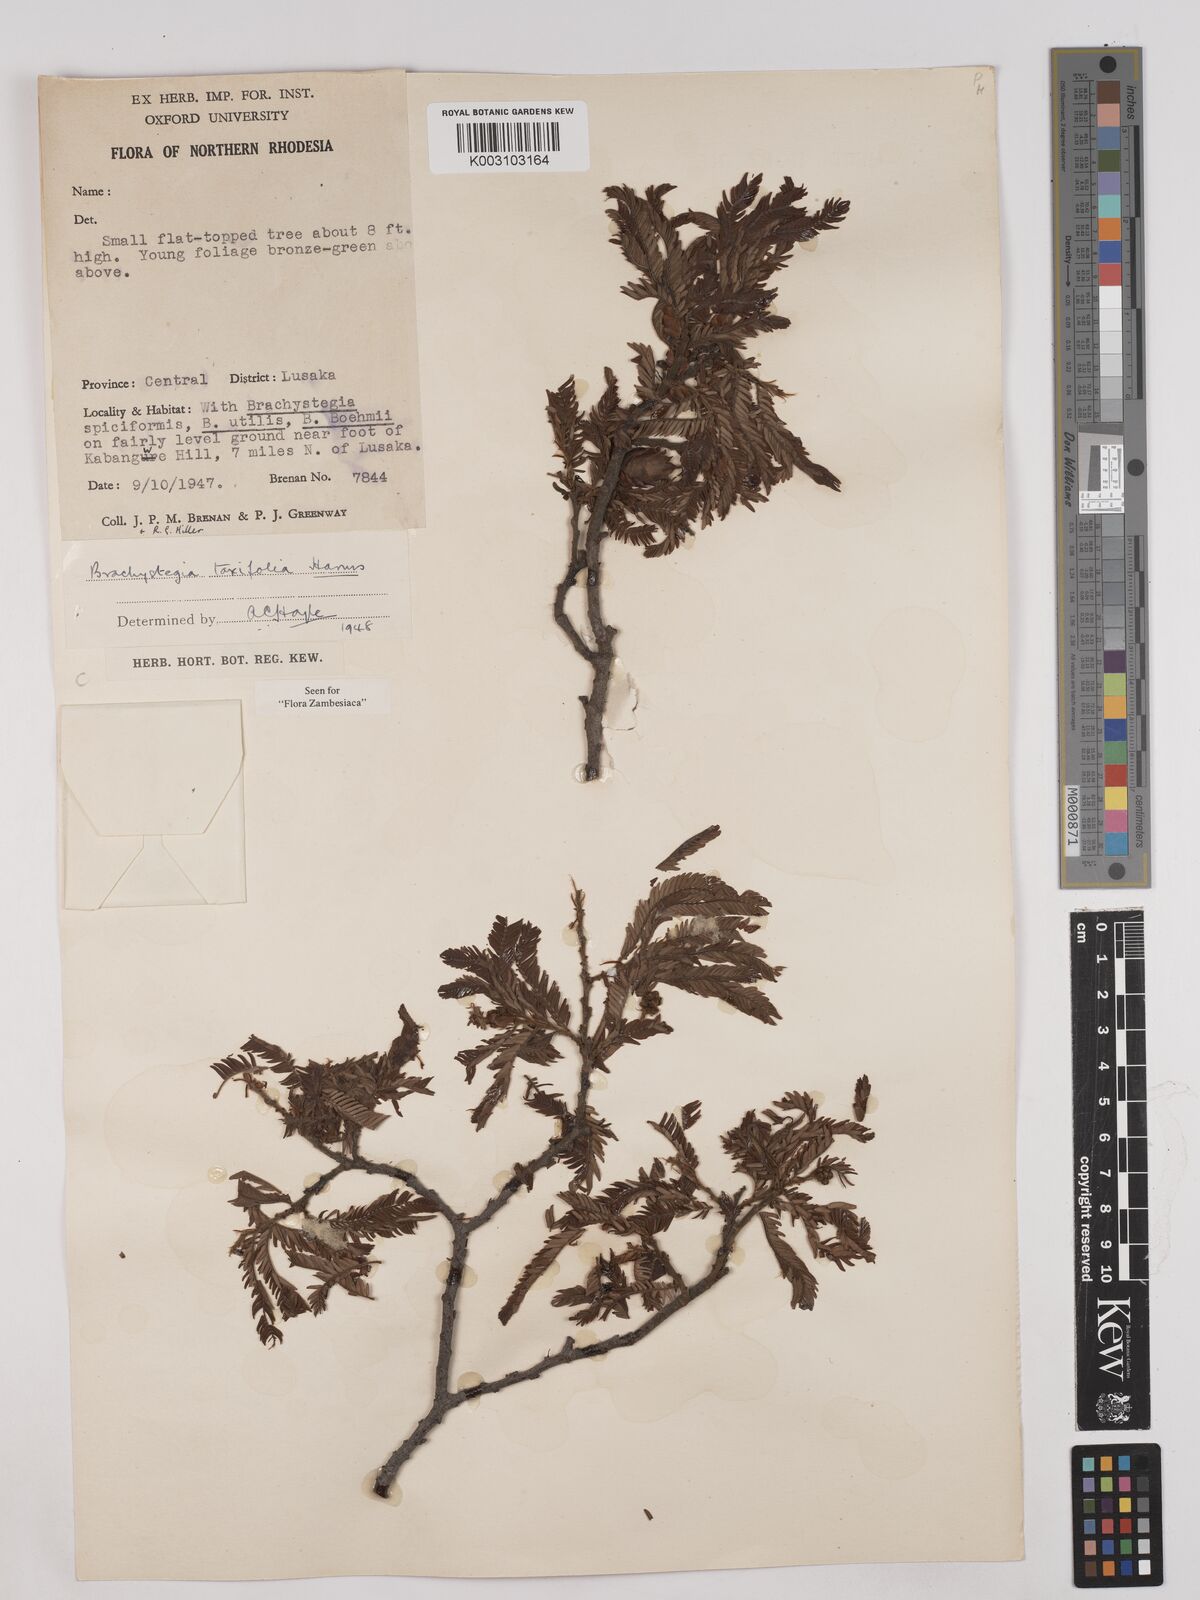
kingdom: Plantae
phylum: Tracheophyta
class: Magnoliopsida
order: Fabales
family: Fabaceae
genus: Brachystegia
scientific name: Brachystegia taxifolia
